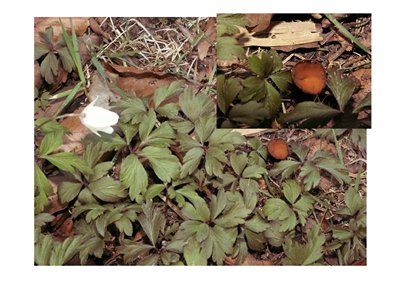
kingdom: Fungi
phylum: Ascomycota
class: Leotiomycetes
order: Helotiales
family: Sclerotiniaceae
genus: Dumontinia
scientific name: Dumontinia tuberosa
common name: anemone-knoldskive
